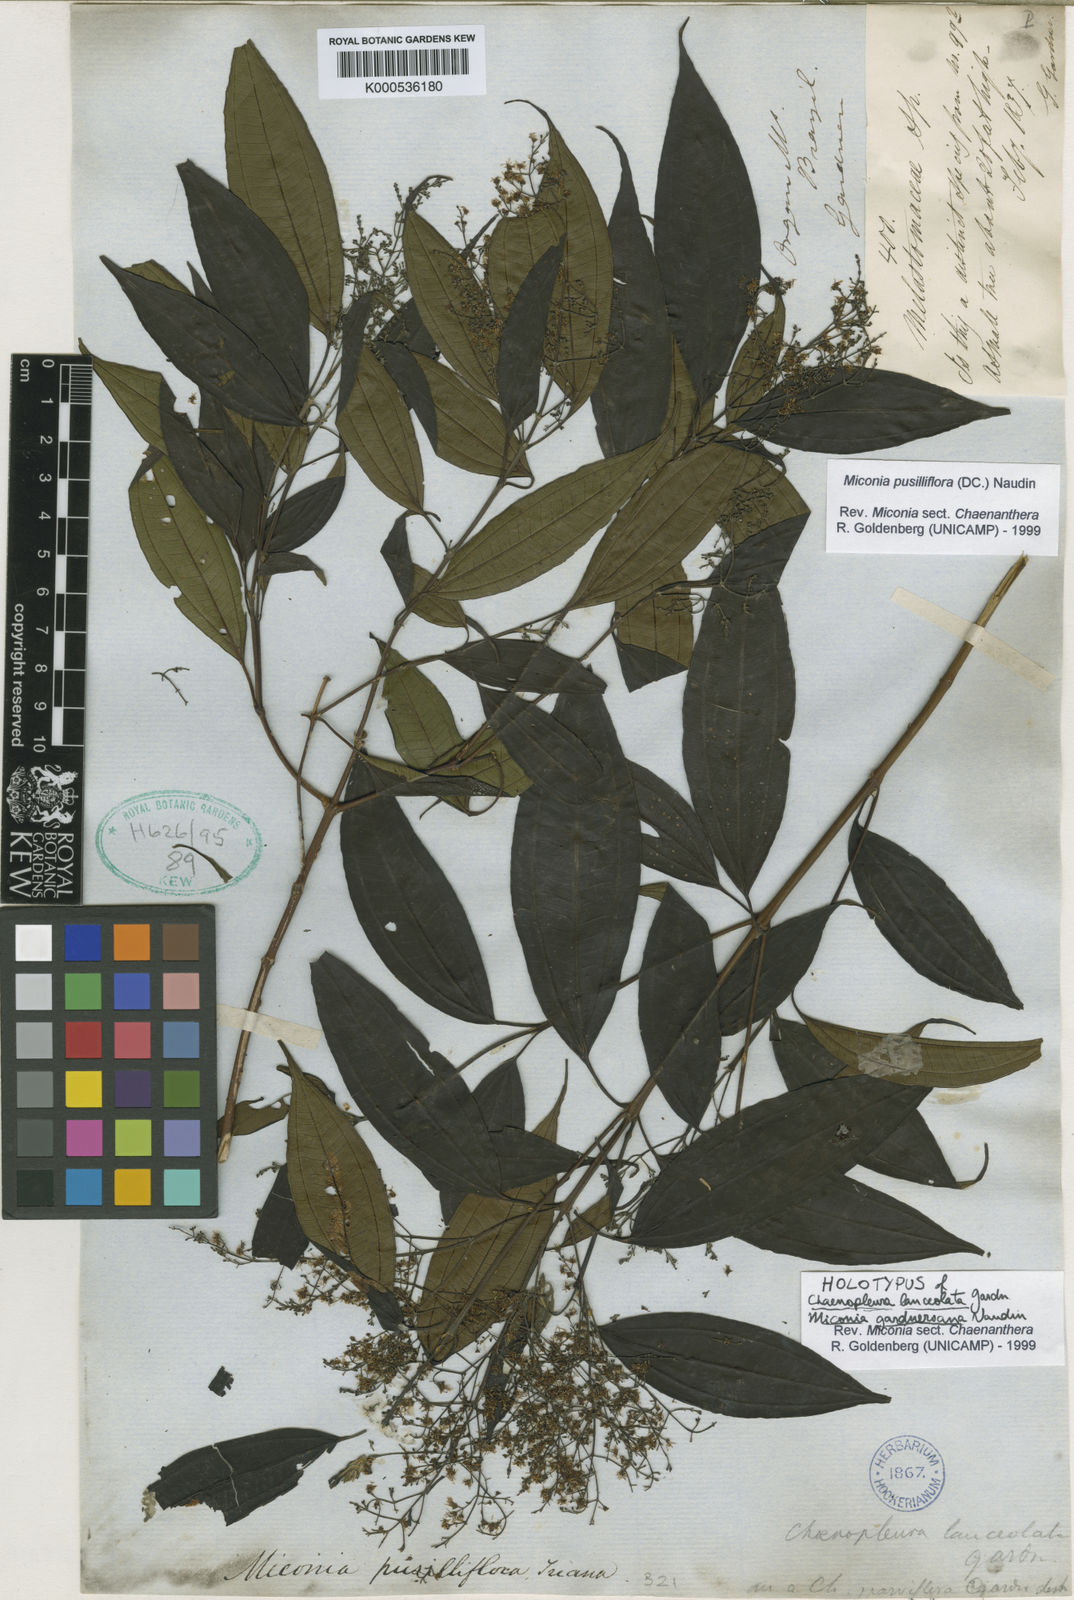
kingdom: Plantae
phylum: Tracheophyta
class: Magnoliopsida
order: Myrtales
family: Melastomataceae
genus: Miconia
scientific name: Miconia pusilliflora
